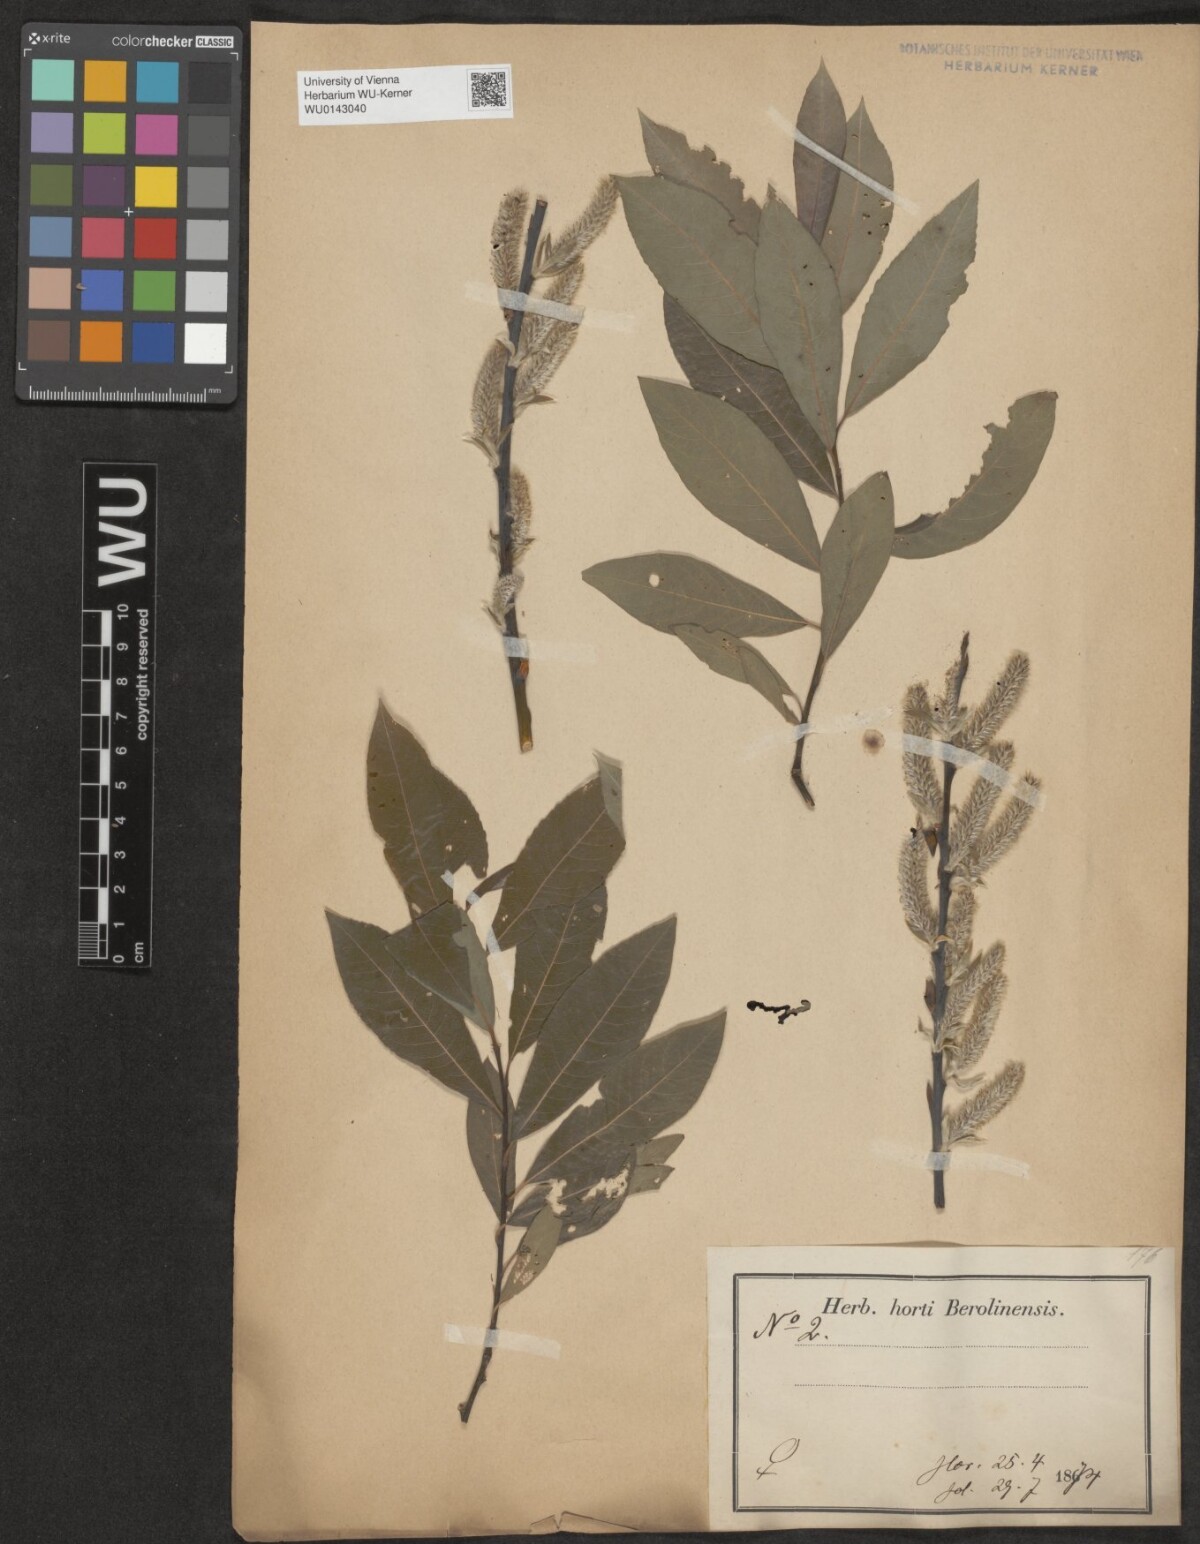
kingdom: Plantae
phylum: Tracheophyta
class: Magnoliopsida
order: Malpighiales
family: Salicaceae
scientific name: Salicaceae
